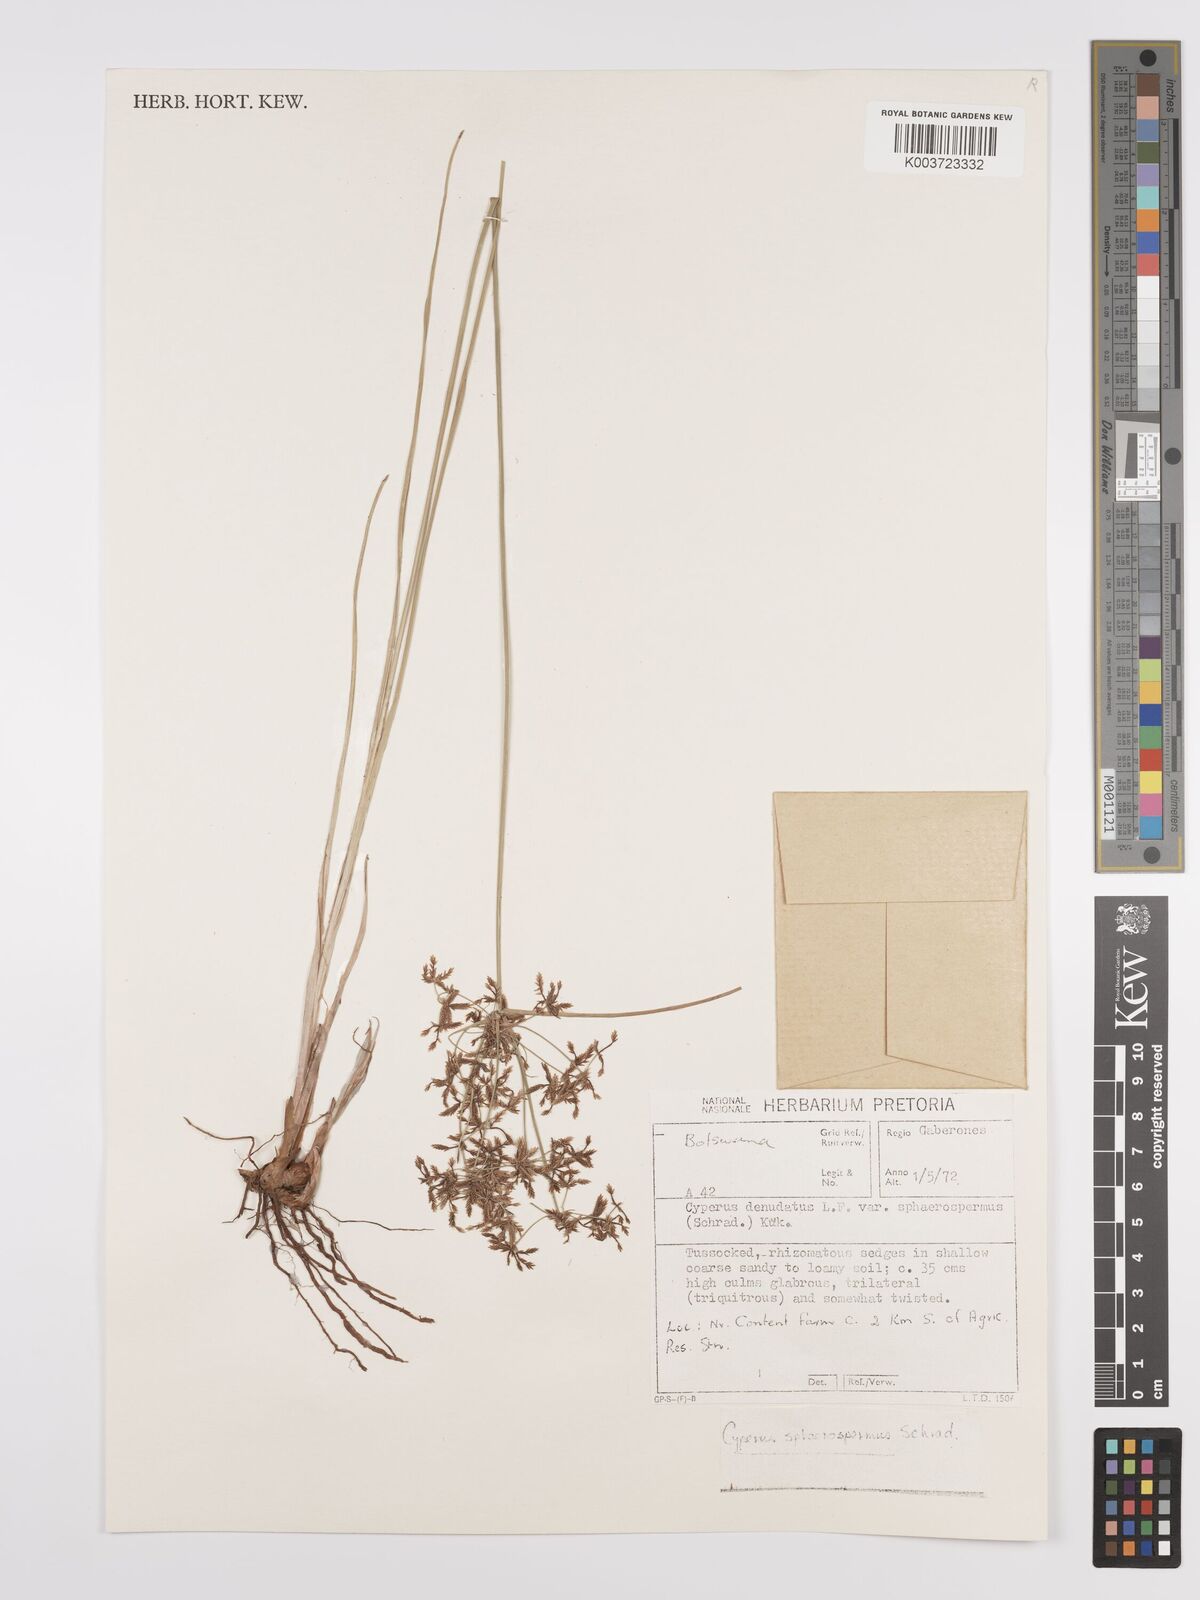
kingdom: Plantae
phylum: Tracheophyta
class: Liliopsida
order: Poales
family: Cyperaceae
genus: Cyperus
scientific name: Cyperus denudatus
